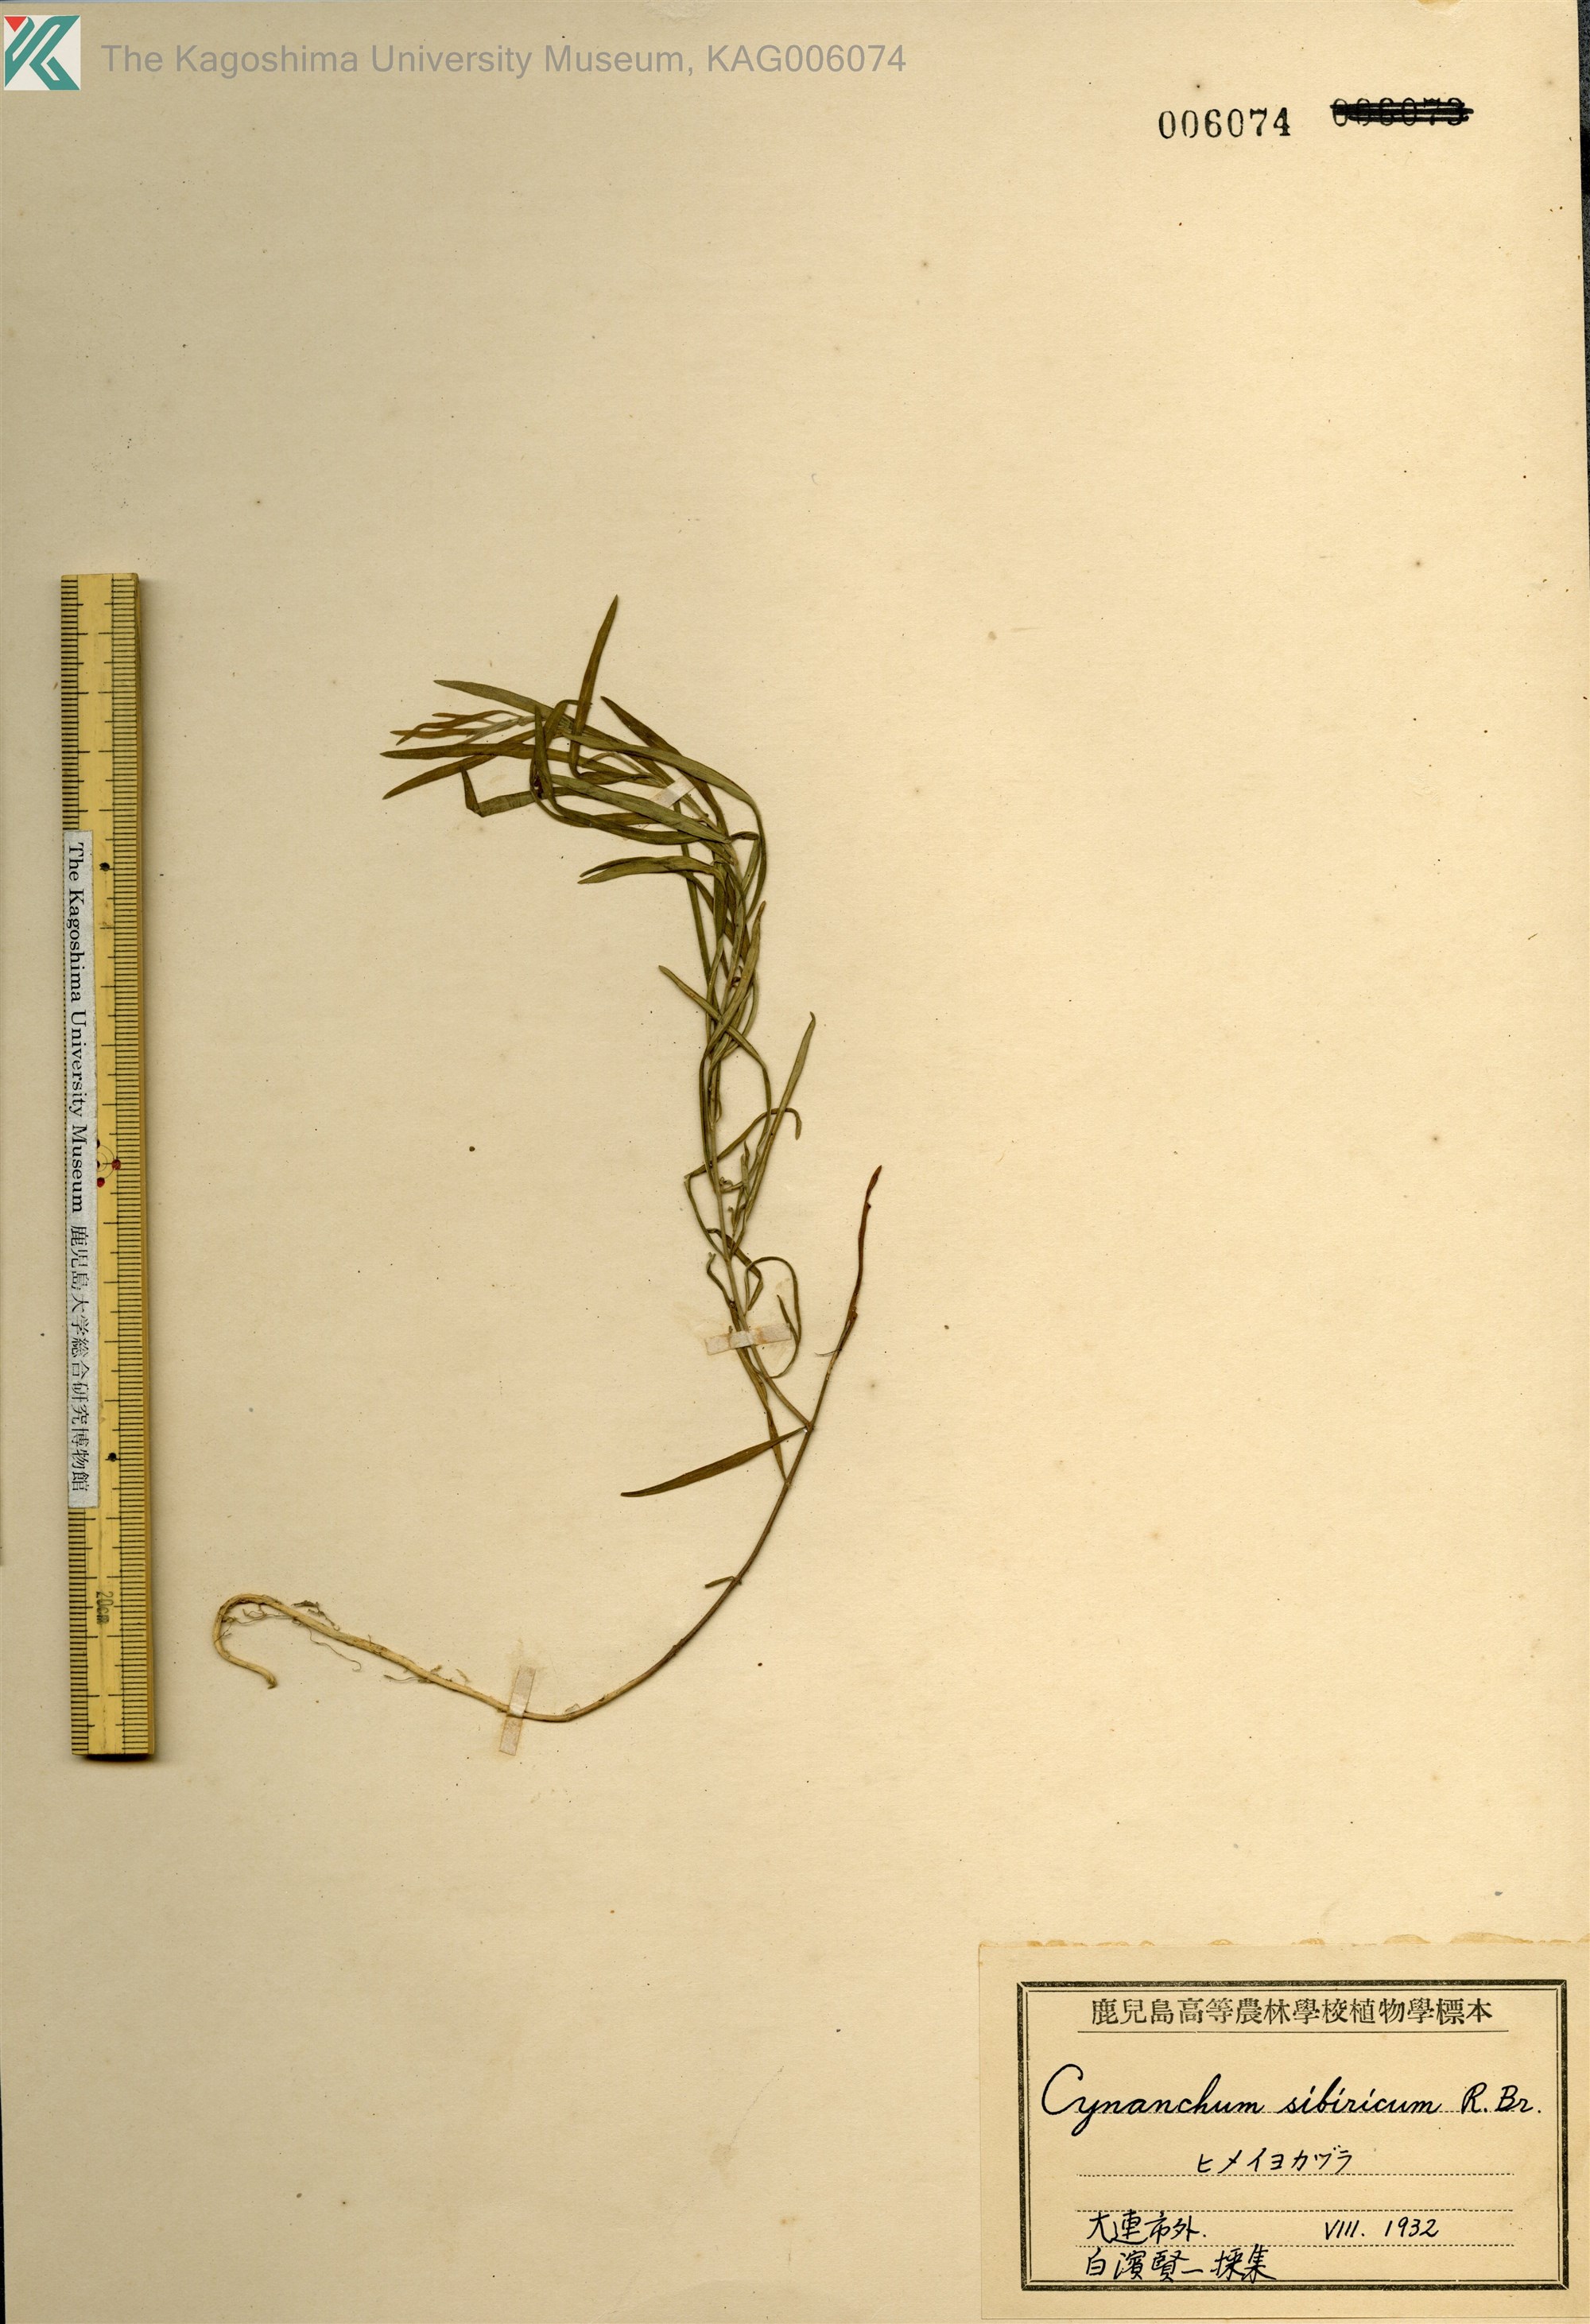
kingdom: Plantae
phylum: Tracheophyta
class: Magnoliopsida
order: Gentianales
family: Apocynaceae
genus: Cynanchum
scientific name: Cynanchum thesioides
